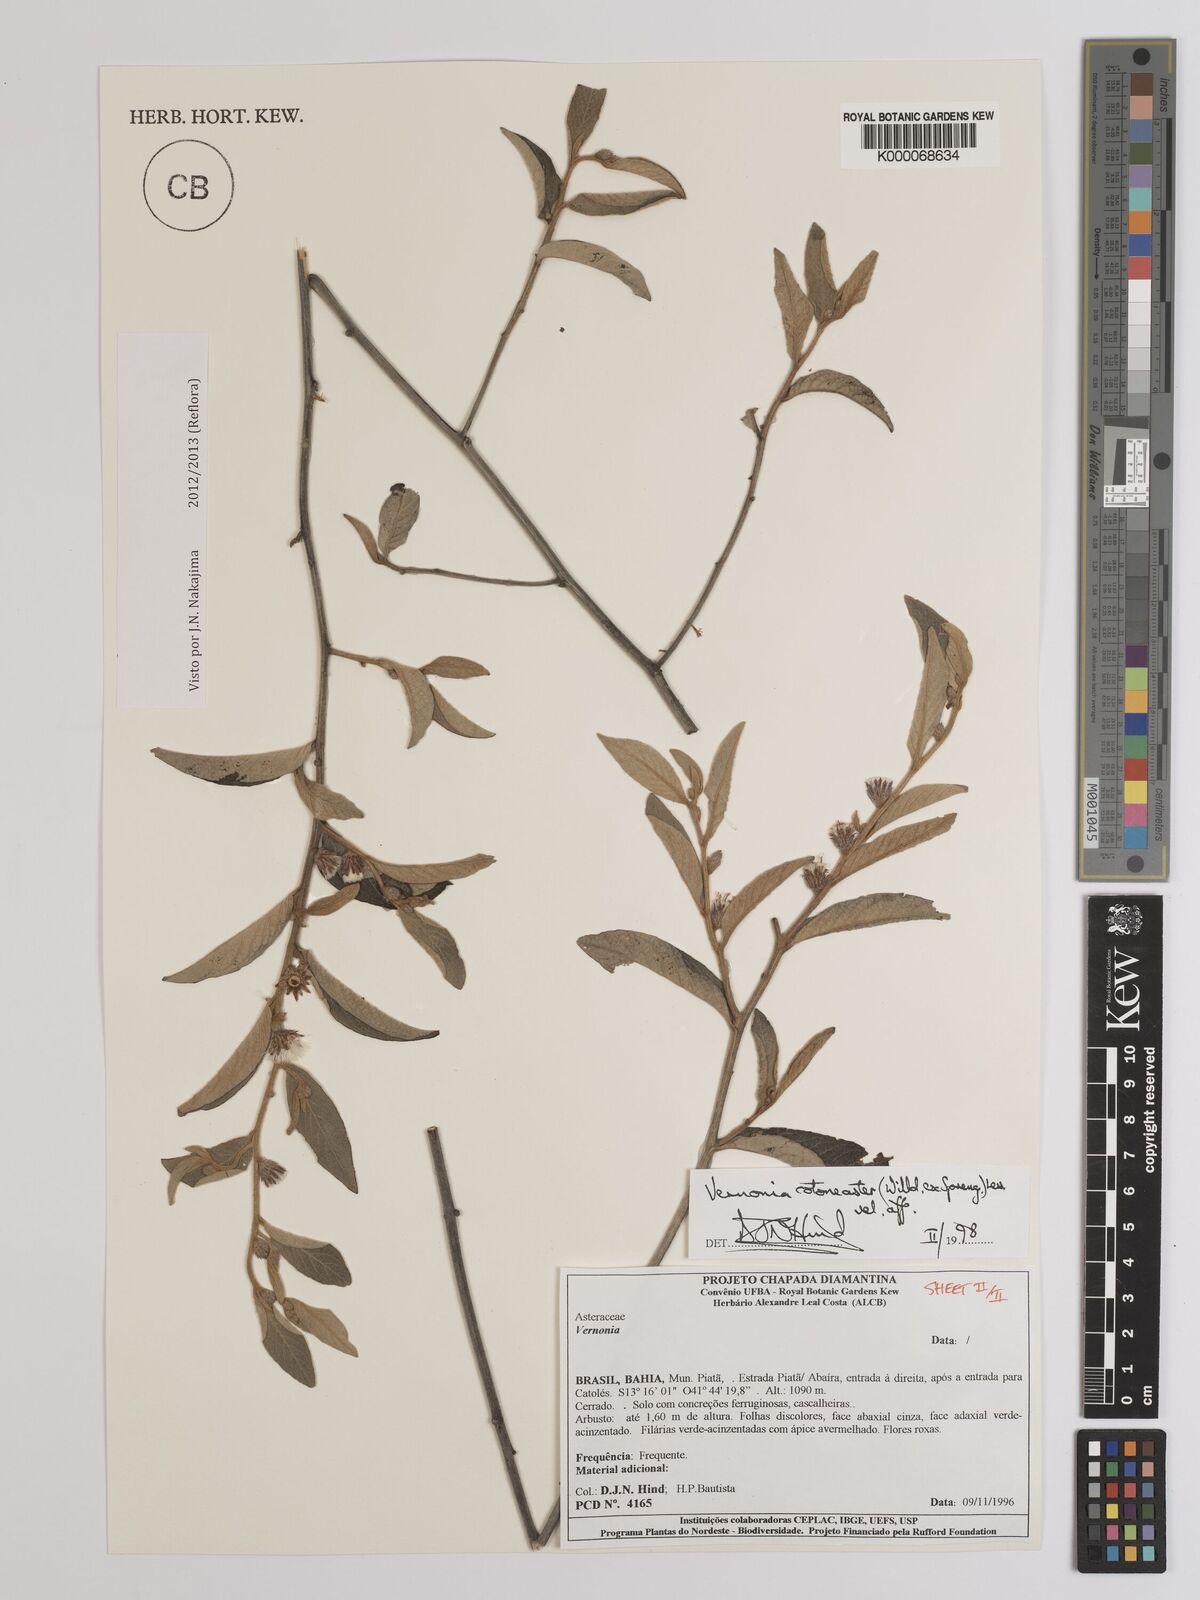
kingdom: Plantae
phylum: Tracheophyta
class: Magnoliopsida
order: Asterales
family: Asteraceae
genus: Lepidaploa
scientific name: Lepidaploa cotoneaster
